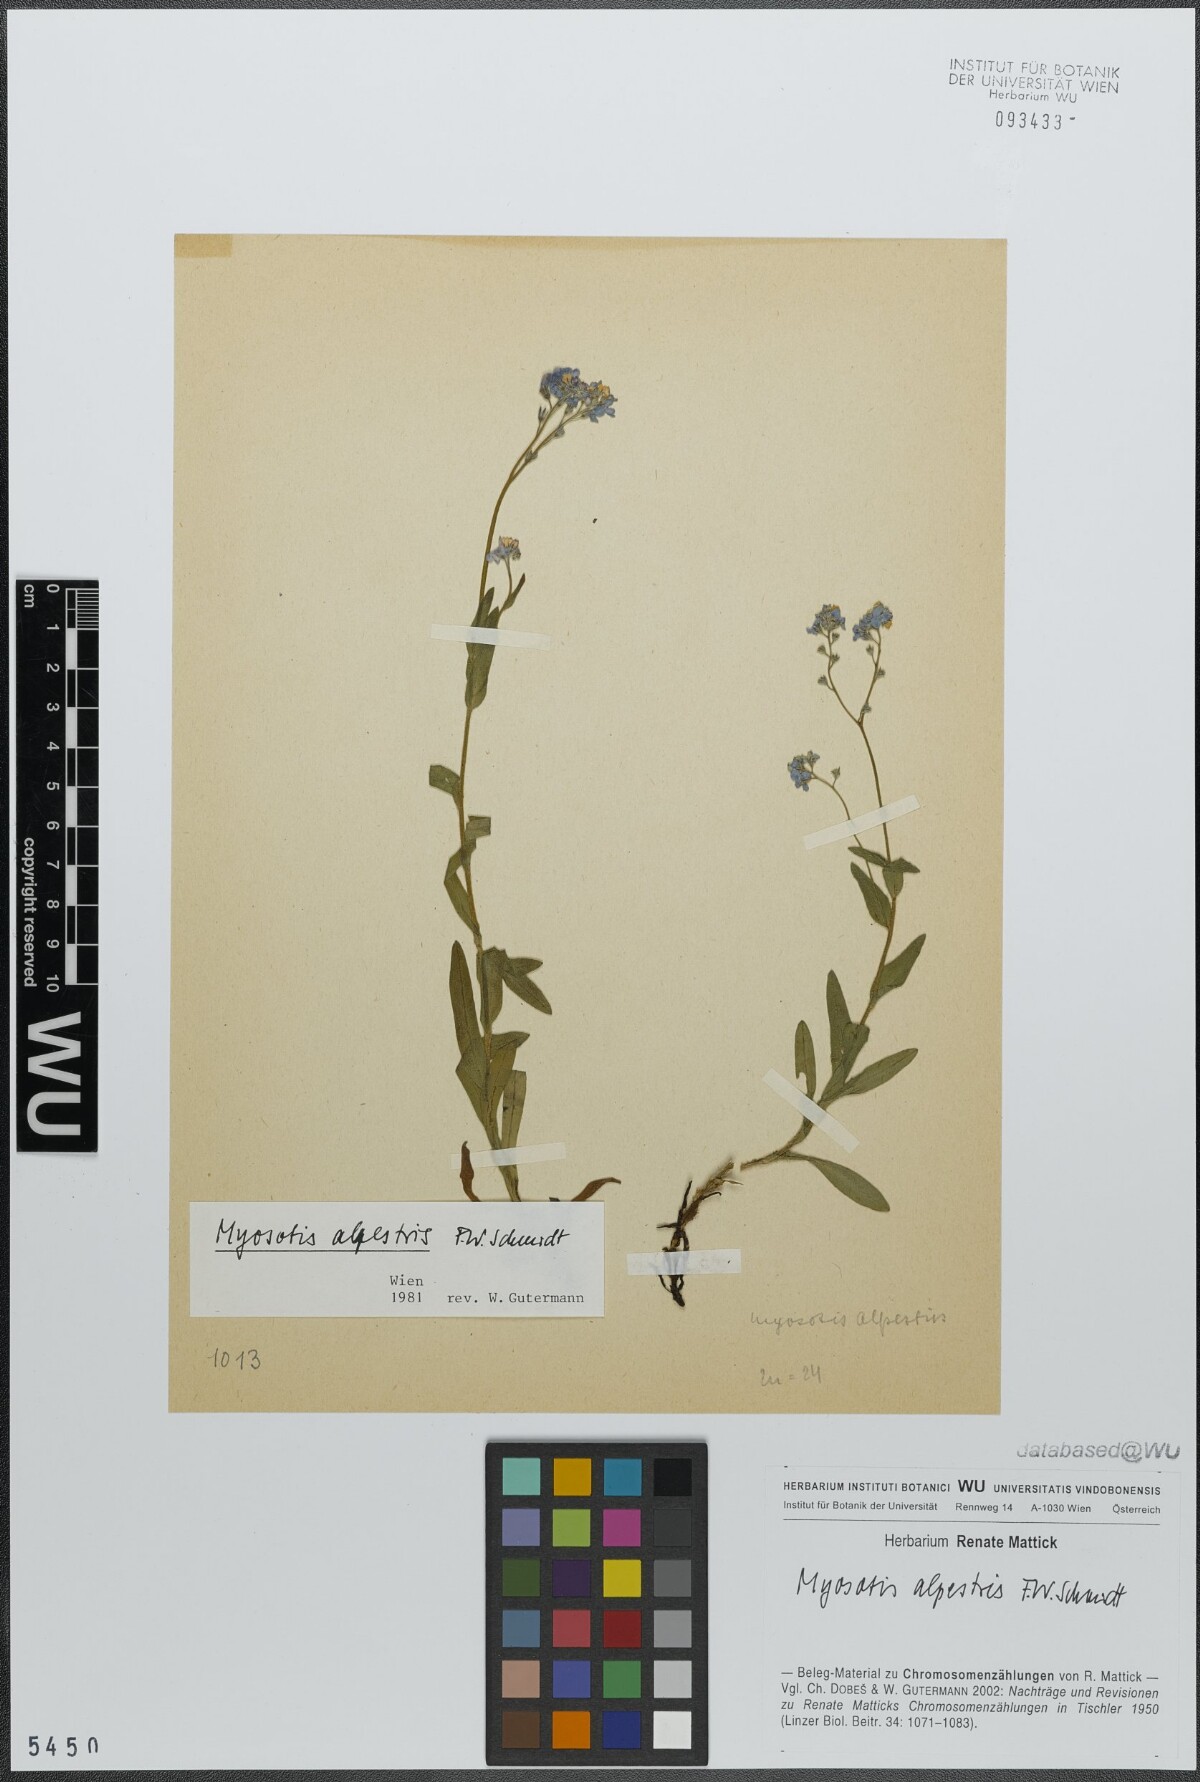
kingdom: Plantae
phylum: Tracheophyta
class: Magnoliopsida
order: Boraginales
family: Boraginaceae
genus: Myosotis
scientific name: Myosotis alpestris
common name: Alpine forget-me-not
